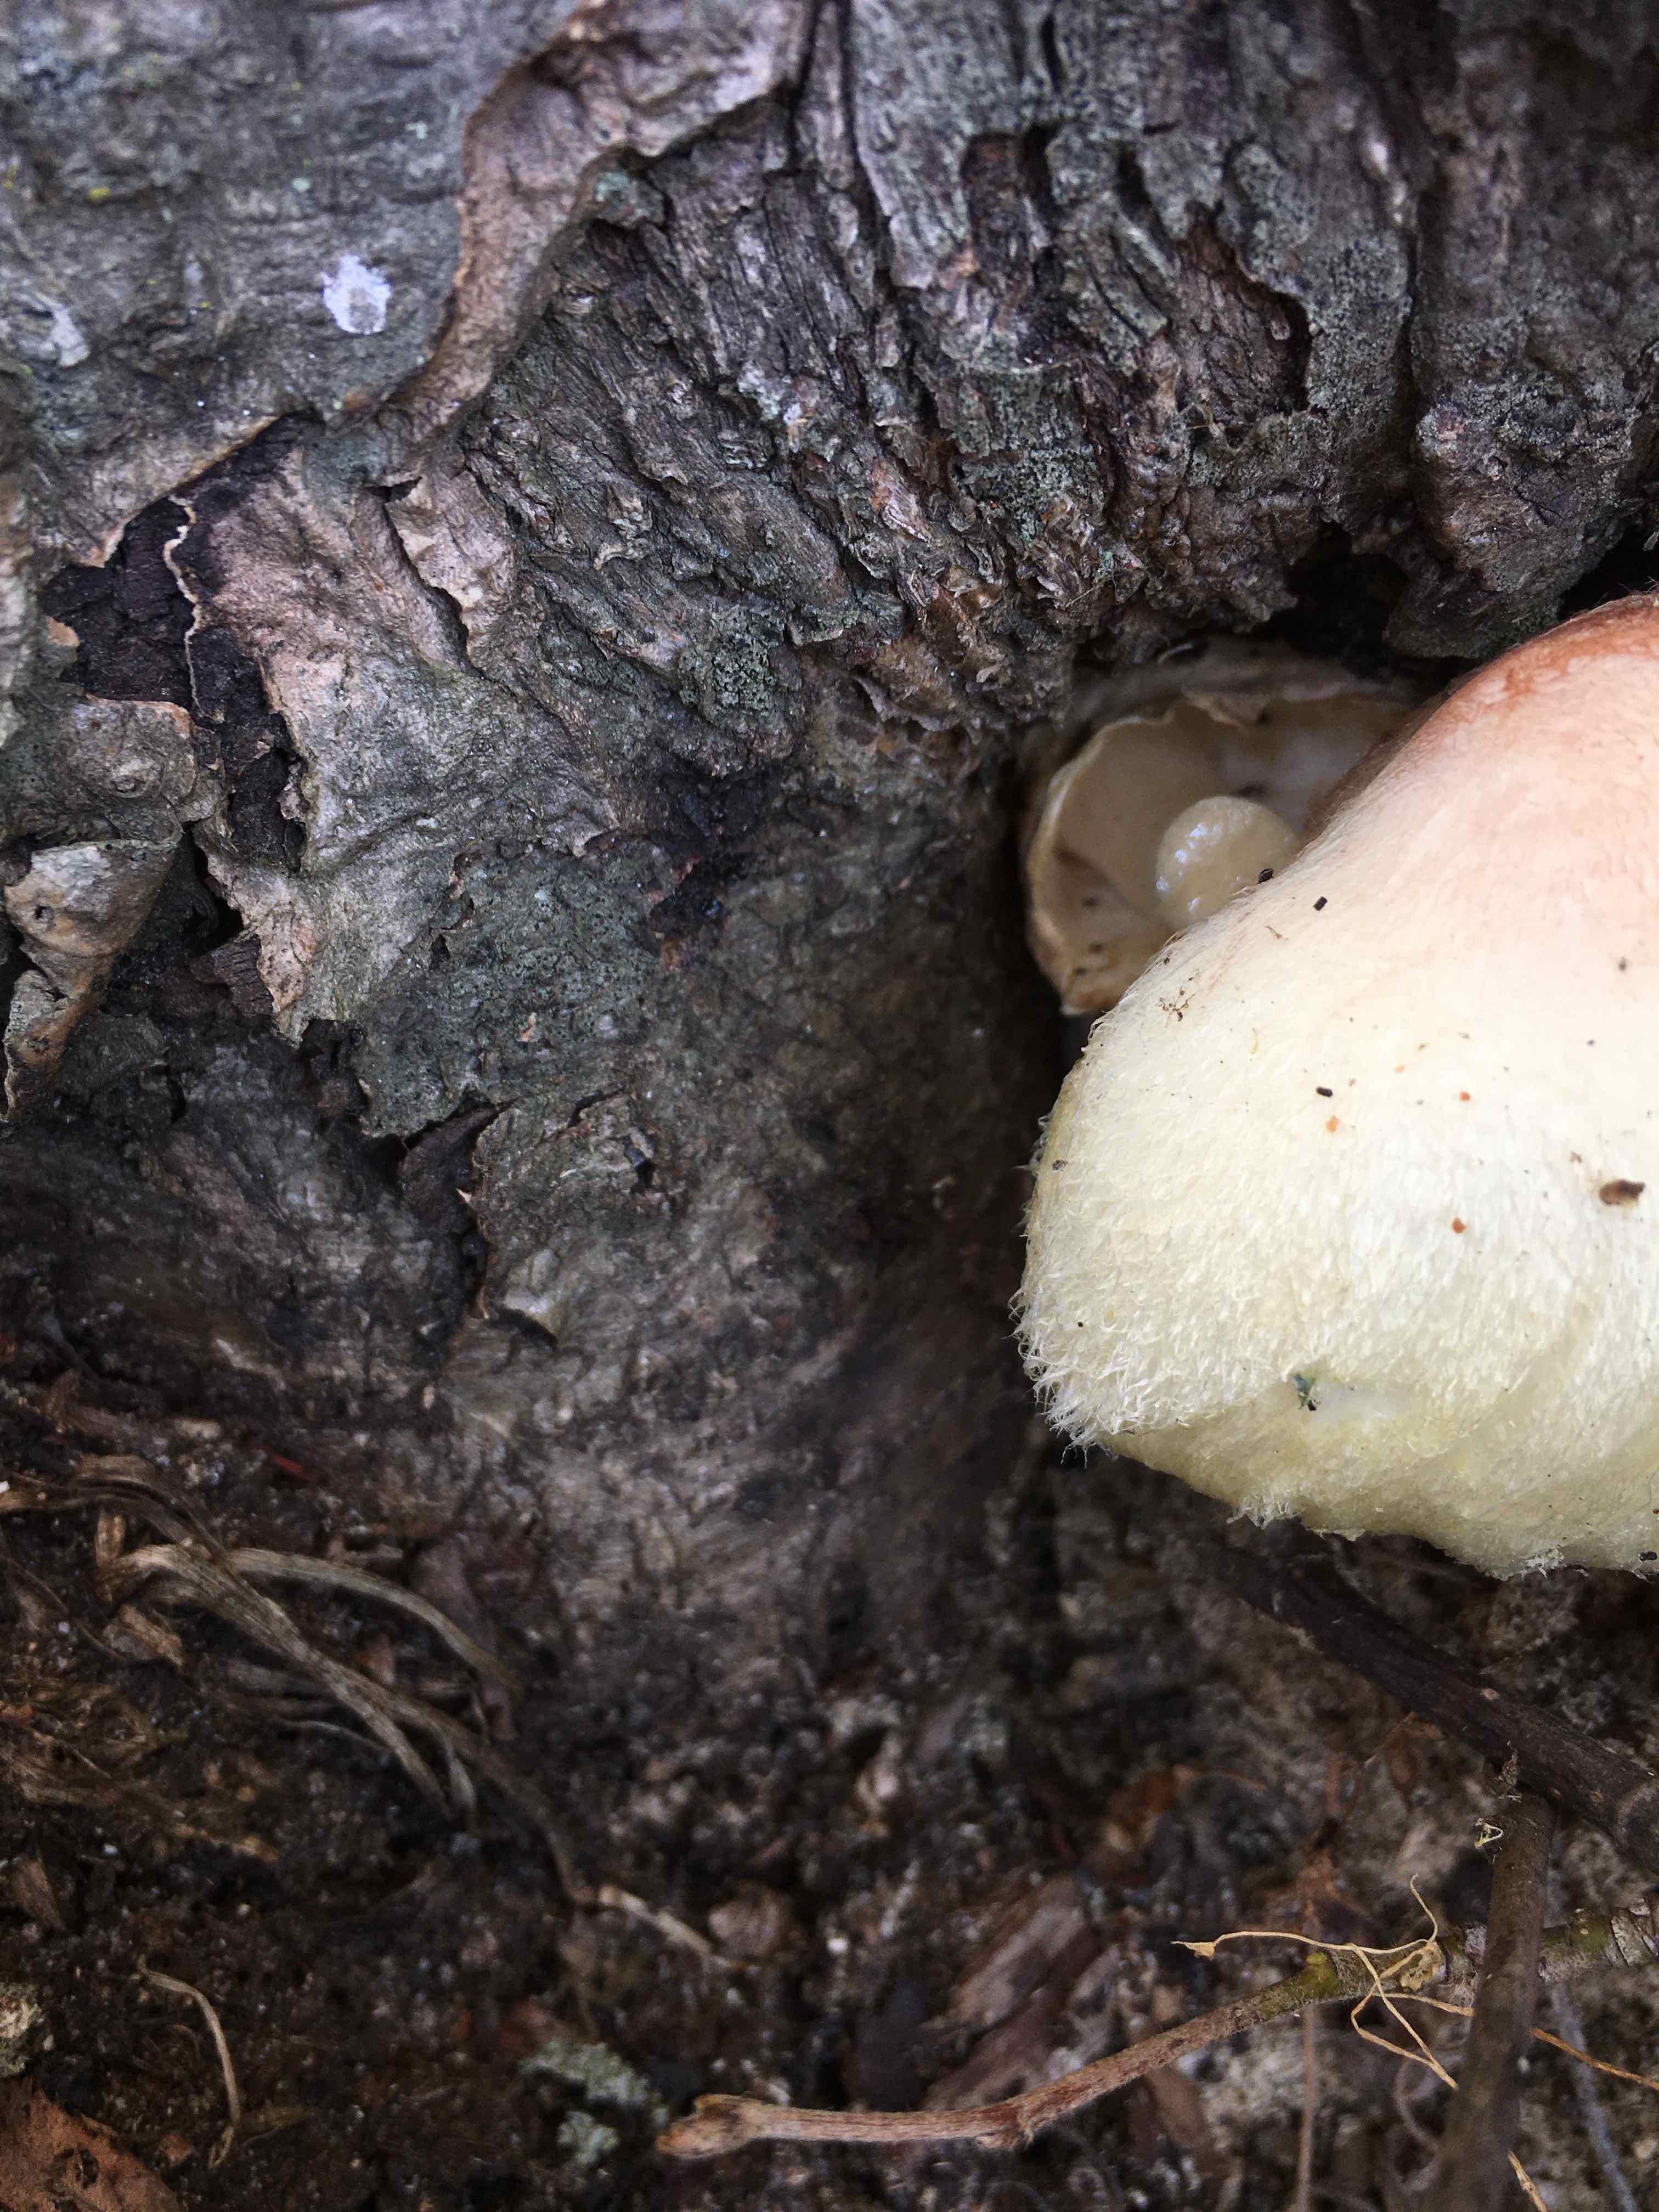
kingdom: Fungi
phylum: Basidiomycota
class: Agaricomycetes
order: Agaricales
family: Pluteaceae
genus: Volvariella
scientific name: Volvariella bombycina
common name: silkehåret posesvamp
